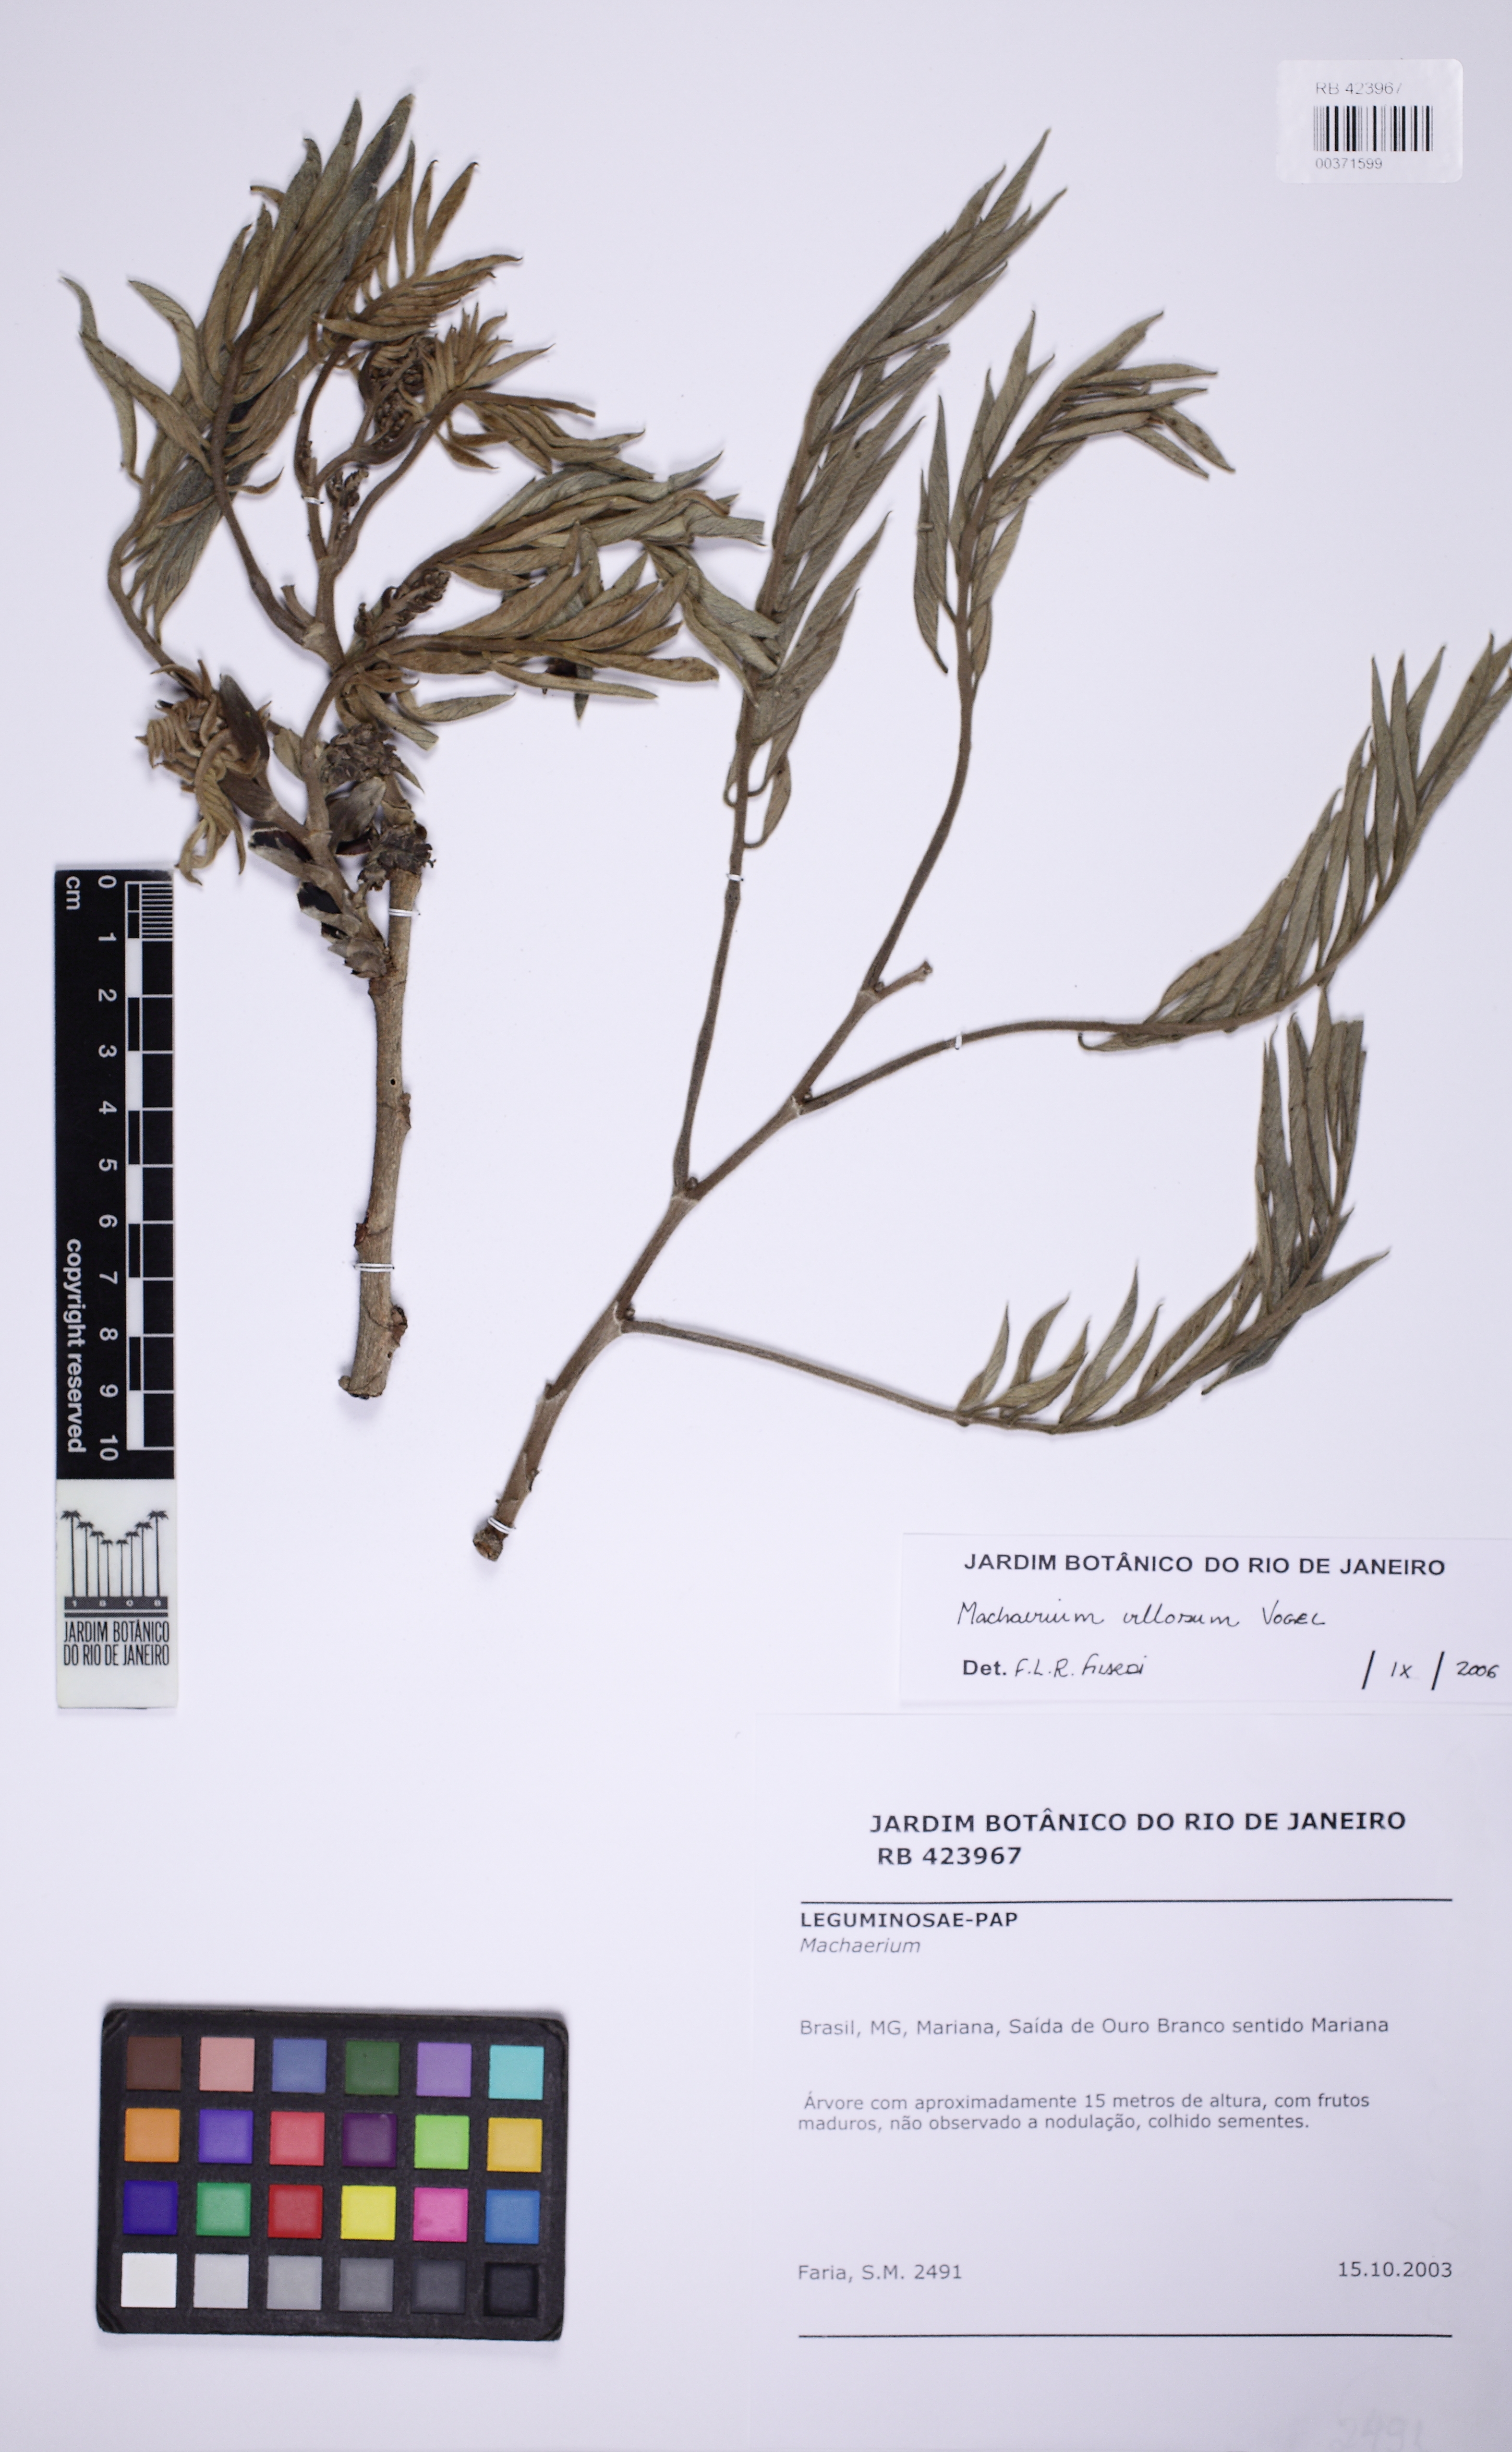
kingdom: Plantae
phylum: Tracheophyta
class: Magnoliopsida
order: Fabales
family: Fabaceae
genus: Machaerium
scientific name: Machaerium villosum
